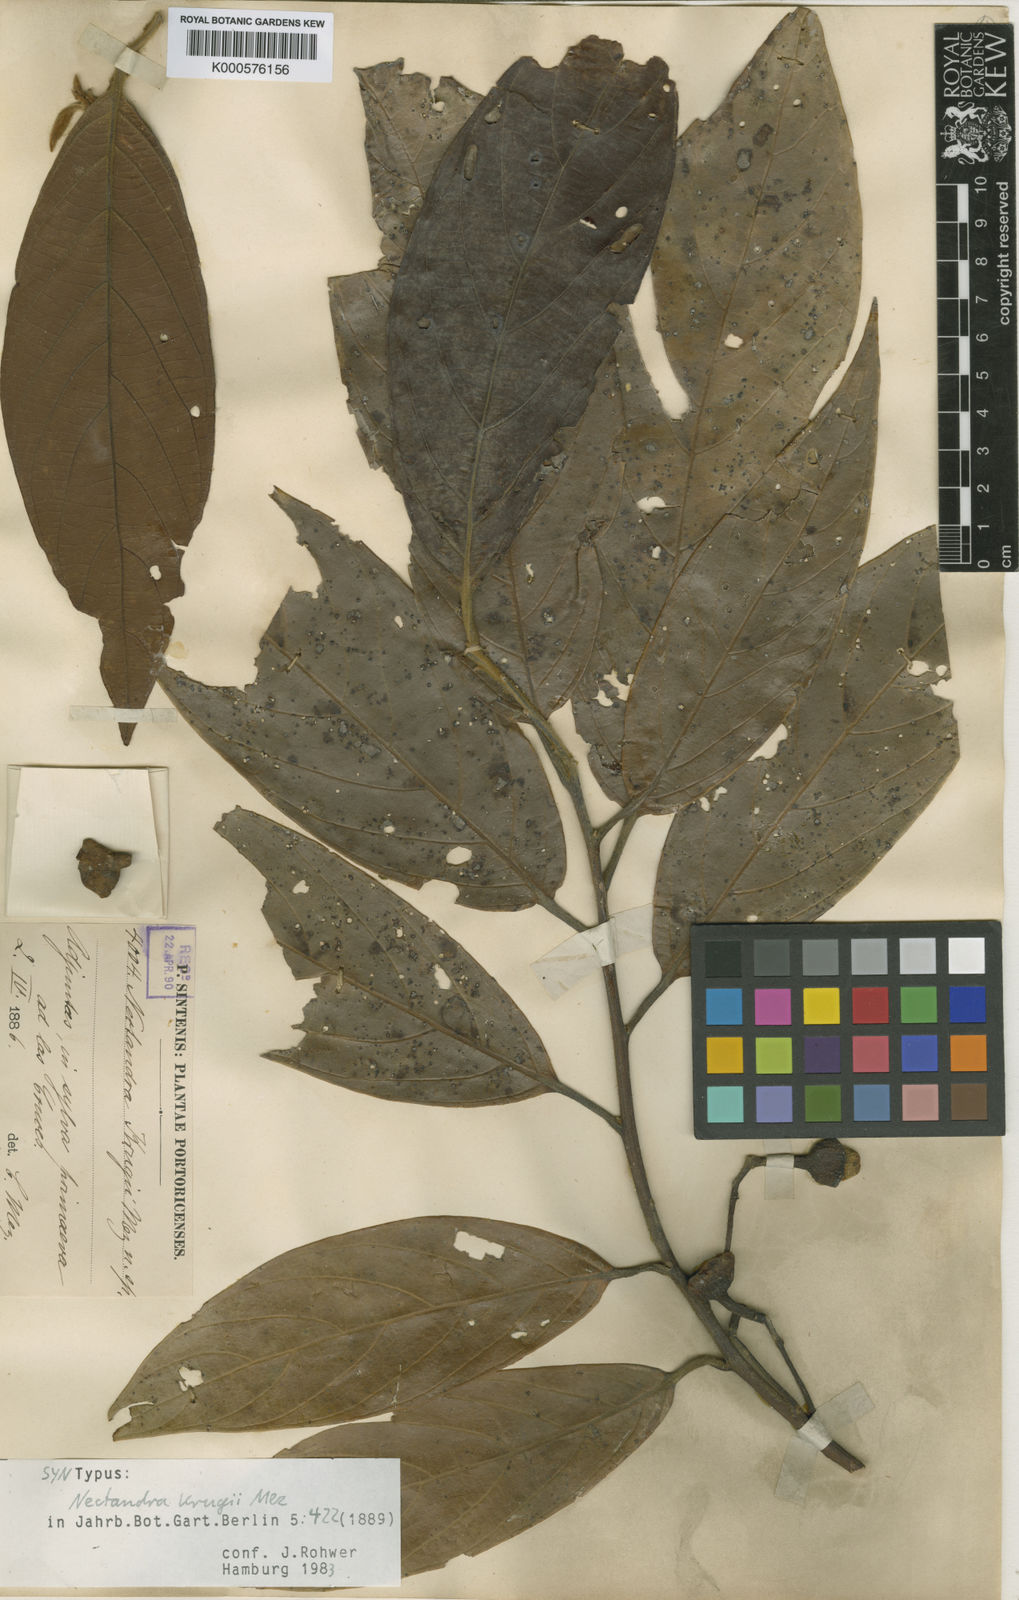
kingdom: Plantae
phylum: Tracheophyta
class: Magnoliopsida
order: Laurales
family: Lauraceae
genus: Nectandra
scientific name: Nectandra krugii
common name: Black sweetwood
